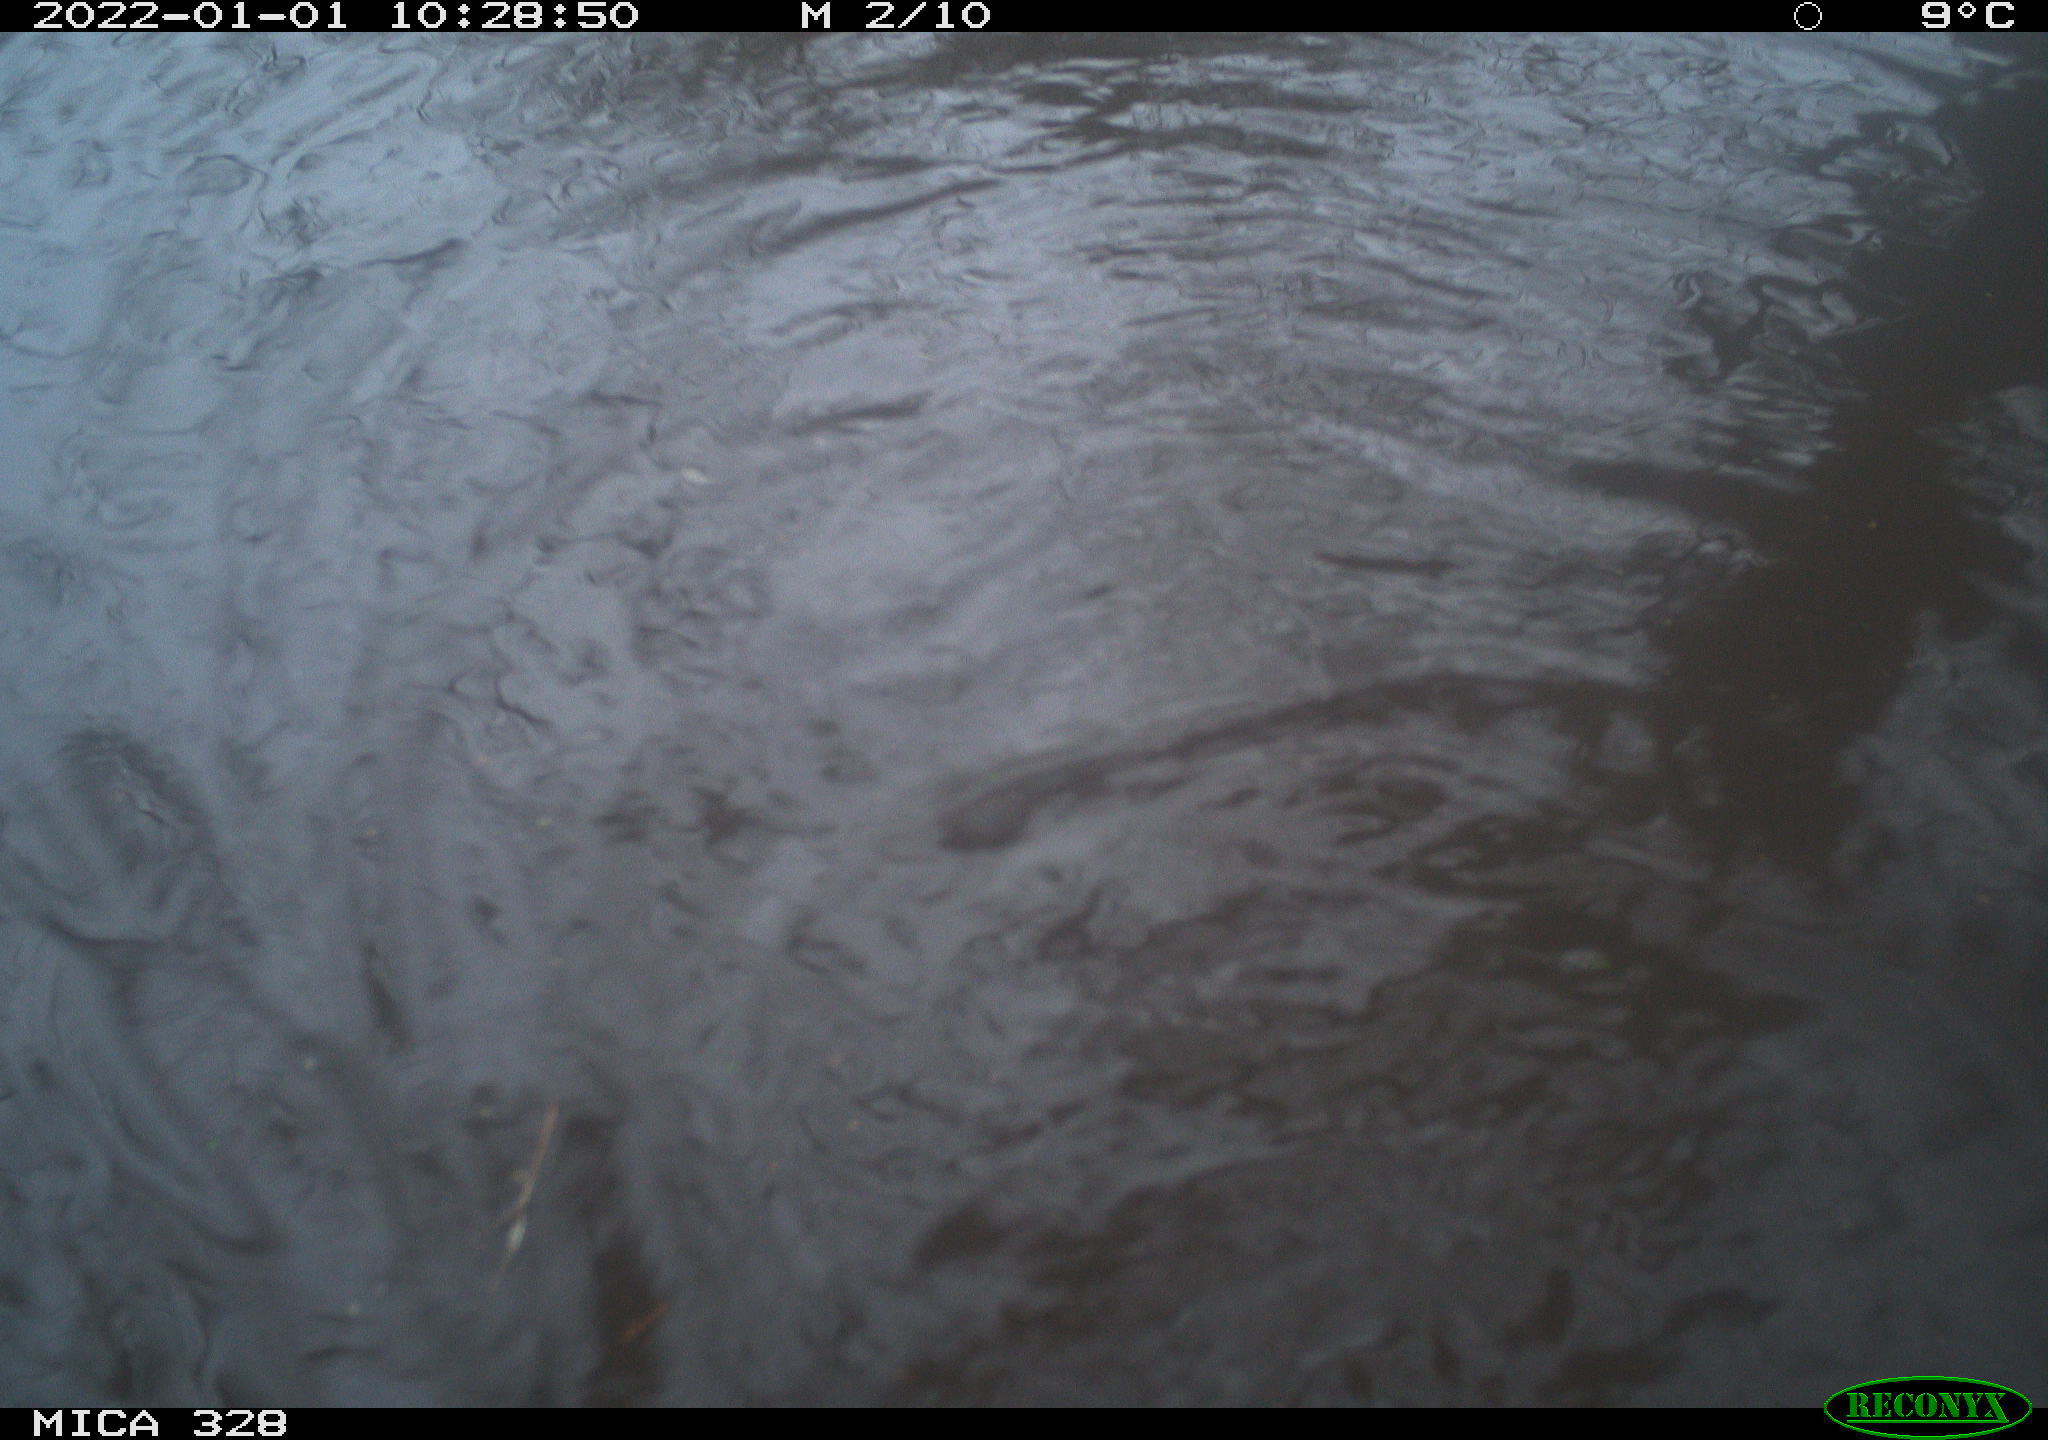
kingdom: Animalia
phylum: Chordata
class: Mammalia
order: Rodentia
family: Cricetidae
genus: Ondatra
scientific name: Ondatra zibethicus
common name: Muskrat
